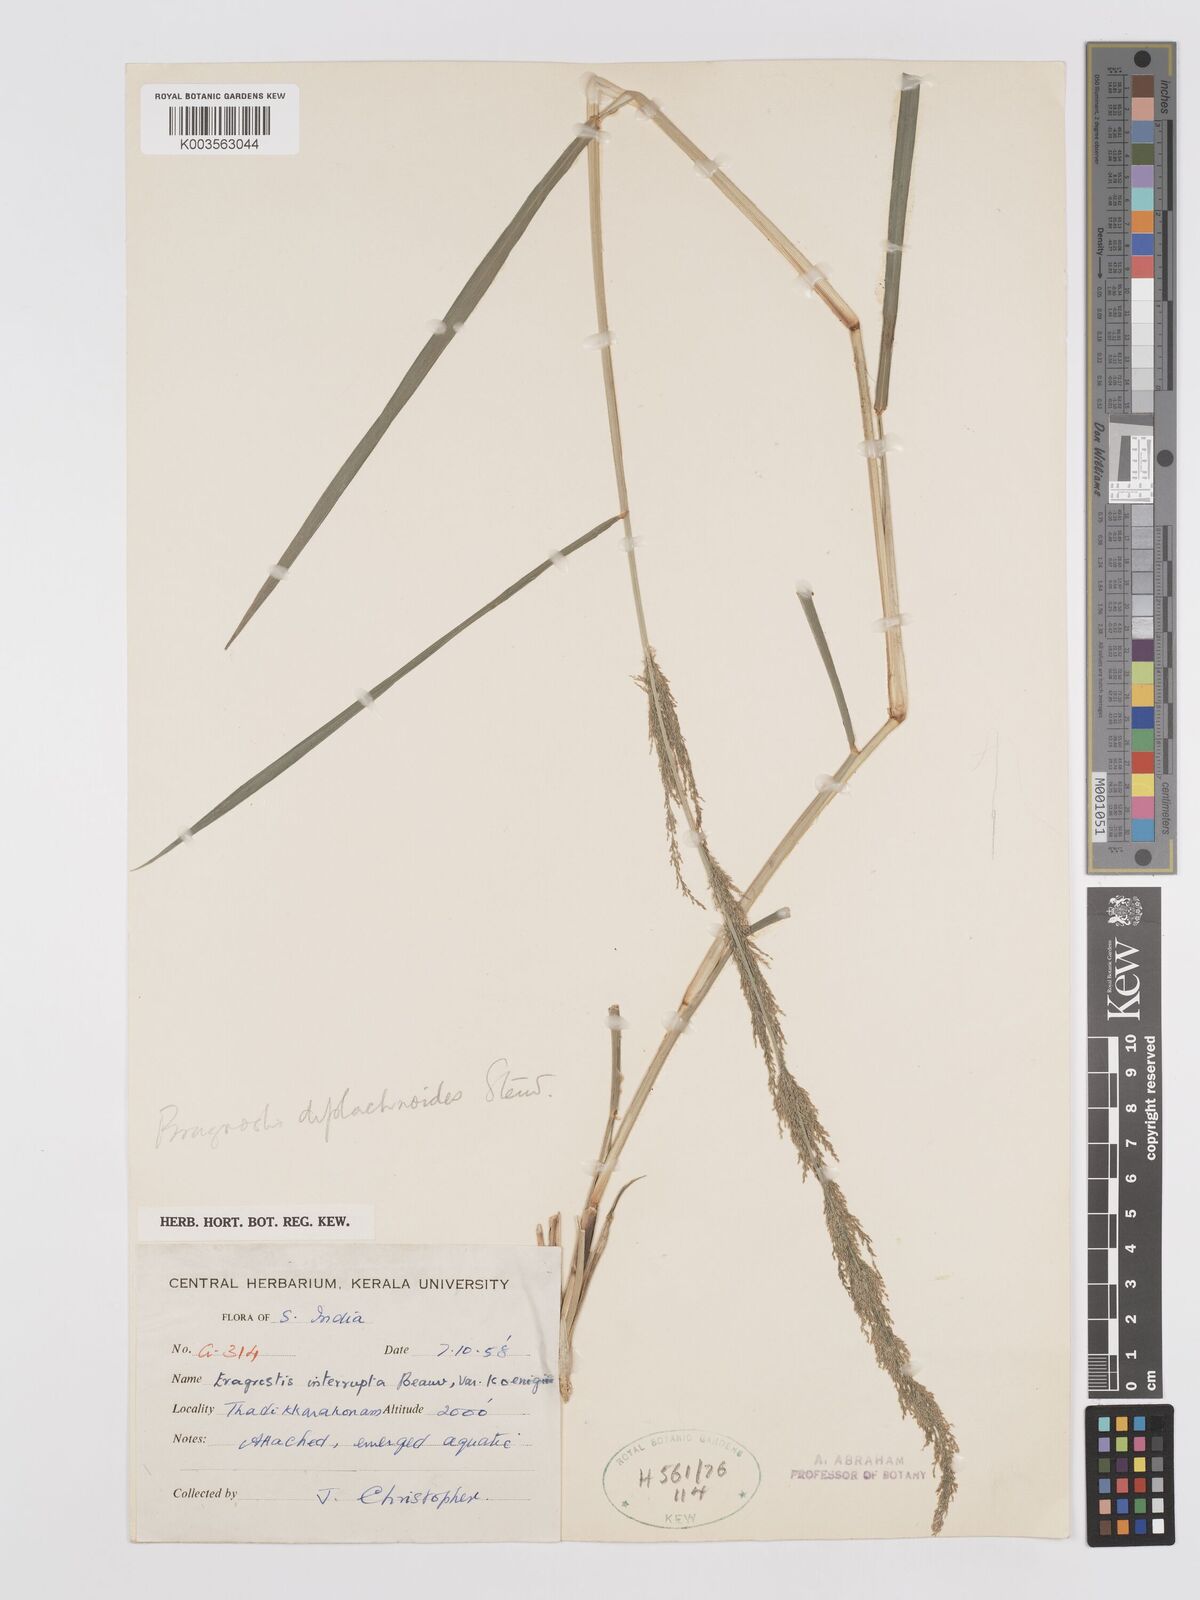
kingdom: Plantae
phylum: Tracheophyta
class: Liliopsida
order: Poales
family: Poaceae
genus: Eragrostis
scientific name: Eragrostis japonica
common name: Pond lovegrass
